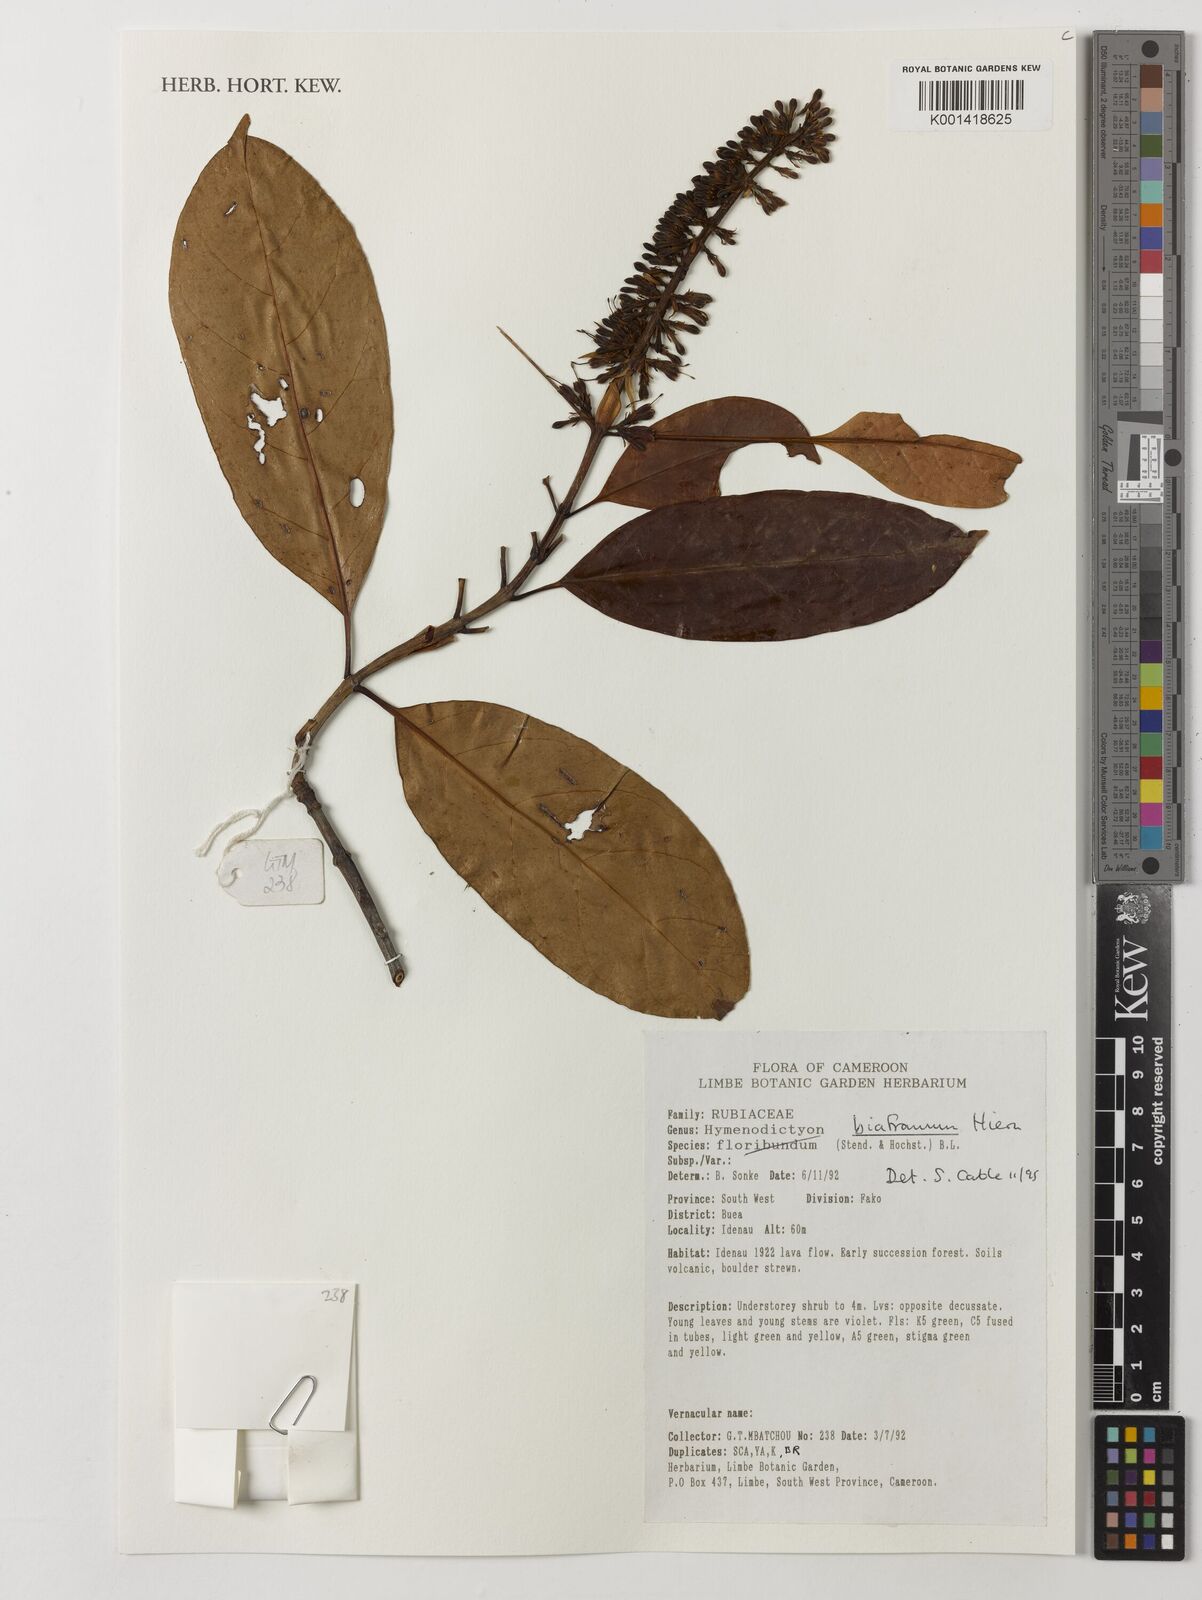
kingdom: Plantae
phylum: Tracheophyta
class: Magnoliopsida
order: Gentianales
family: Rubiaceae
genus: Hymenodictyon
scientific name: Hymenodictyon biafranum
